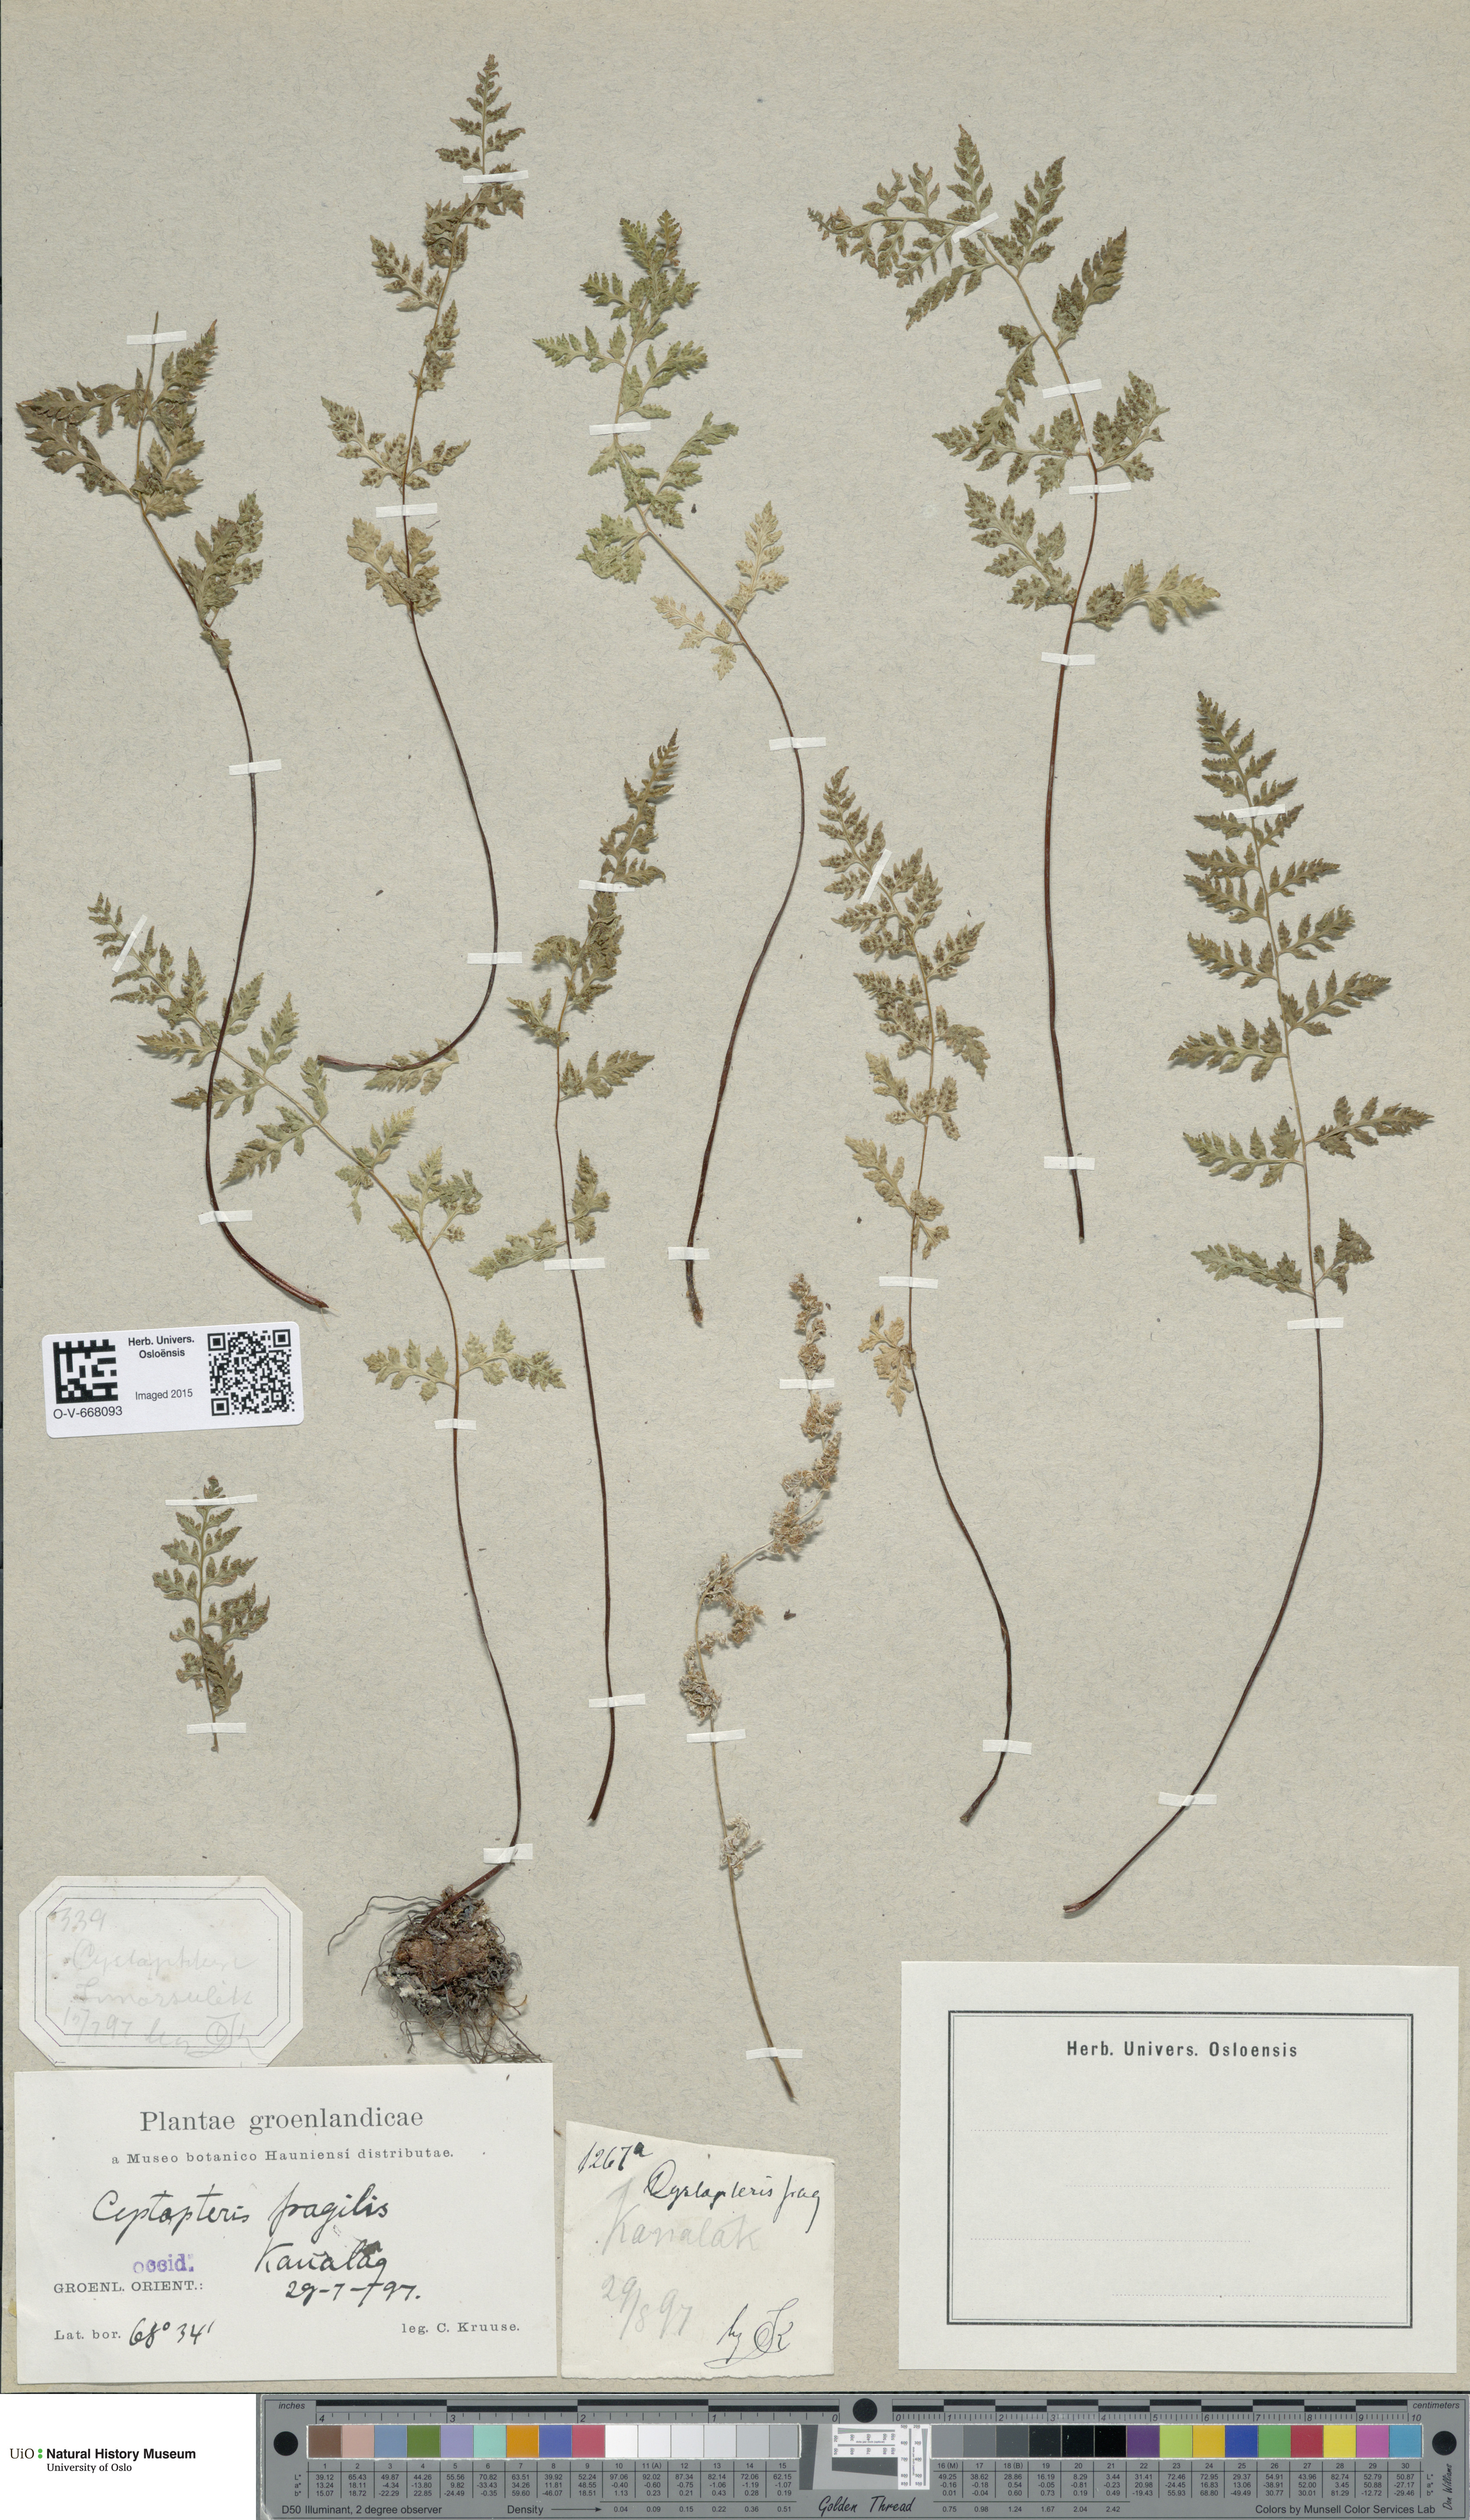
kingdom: Plantae
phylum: Tracheophyta
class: Polypodiopsida
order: Polypodiales
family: Cystopteridaceae
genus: Cystopteris
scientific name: Cystopteris fragilis
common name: Brittle bladder fern
